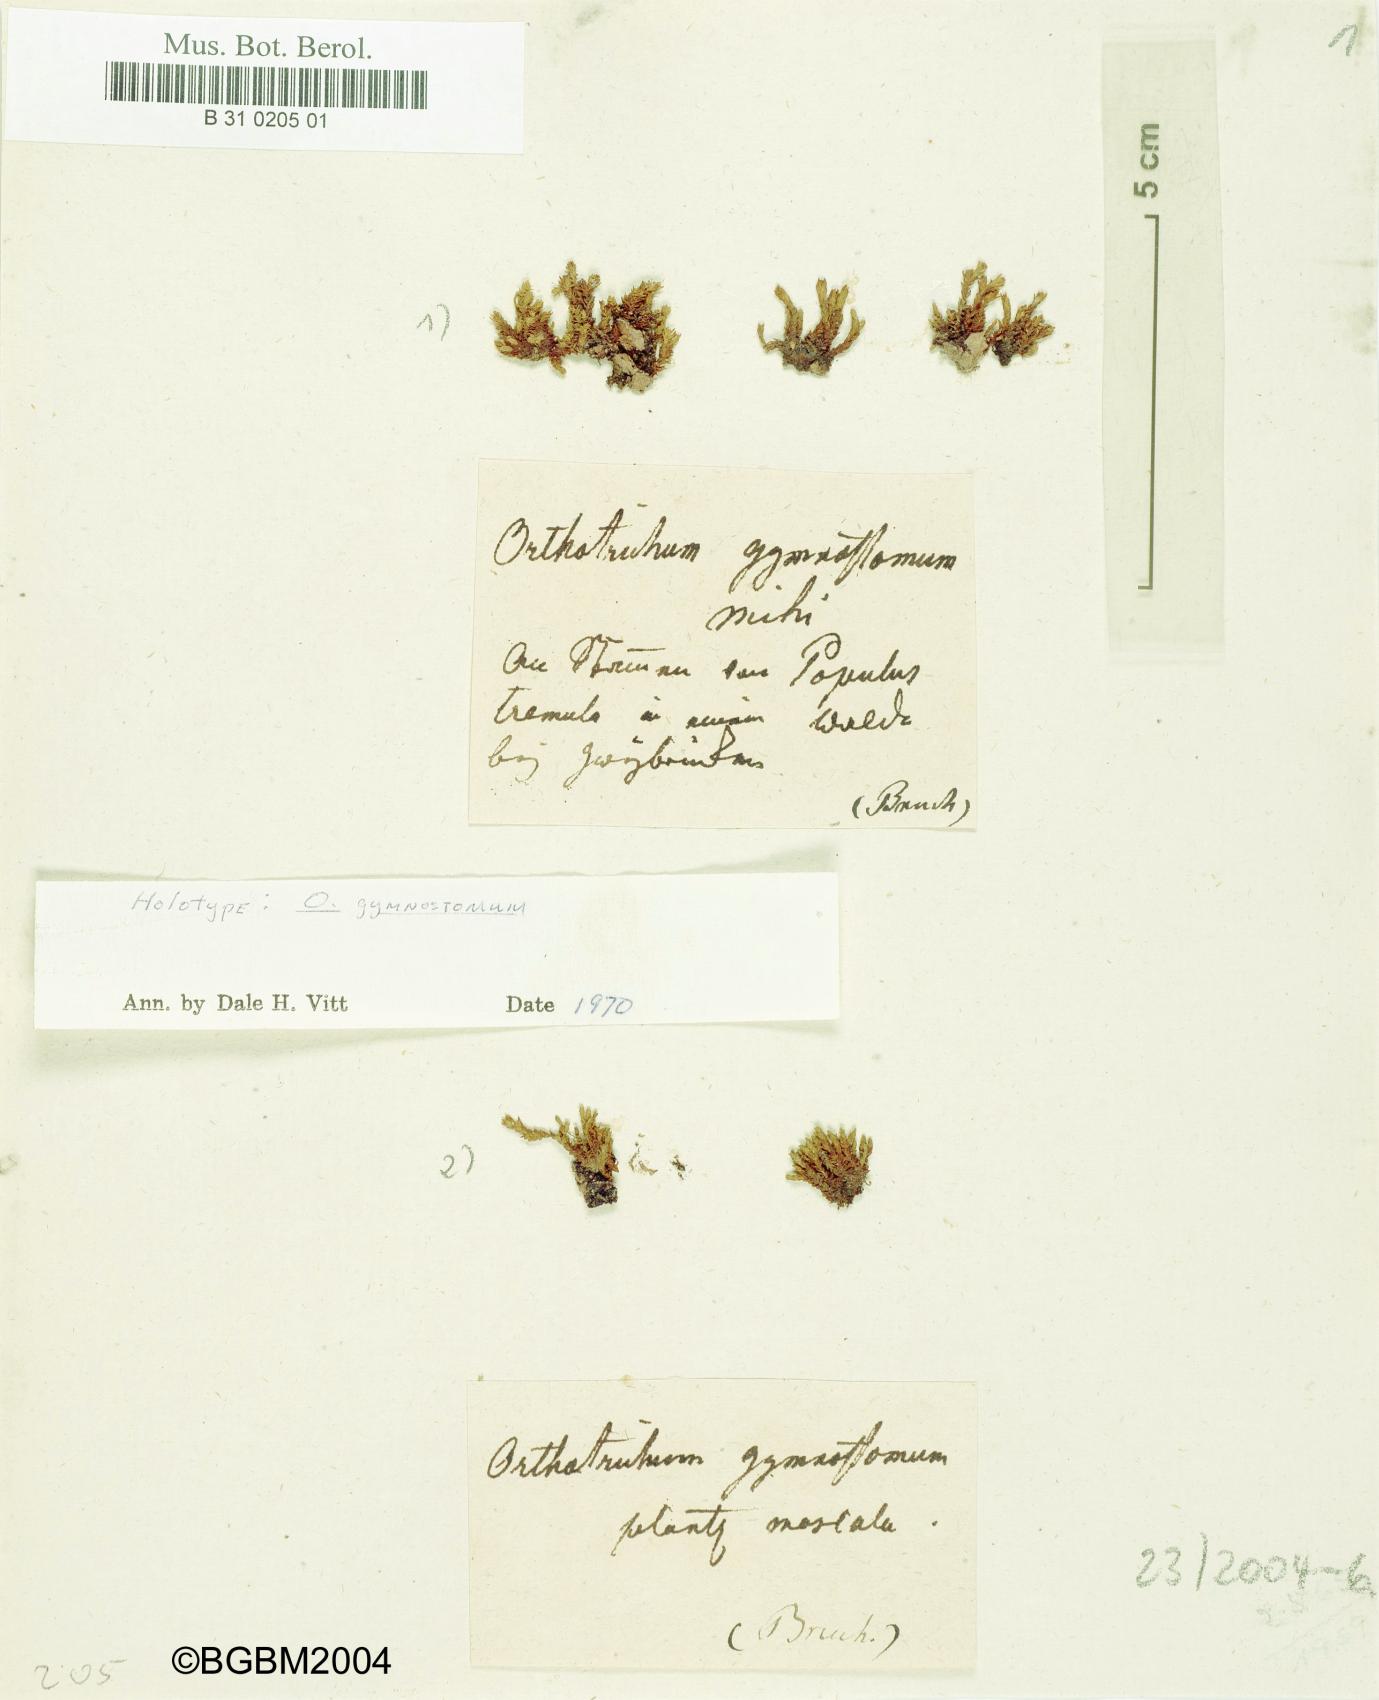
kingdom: Plantae
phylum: Bryophyta
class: Bryopsida
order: Orthotrichales
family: Orthotrichaceae
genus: Nyholmiella
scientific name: Nyholmiella gymnostoma
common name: Aspen bristle-moss
